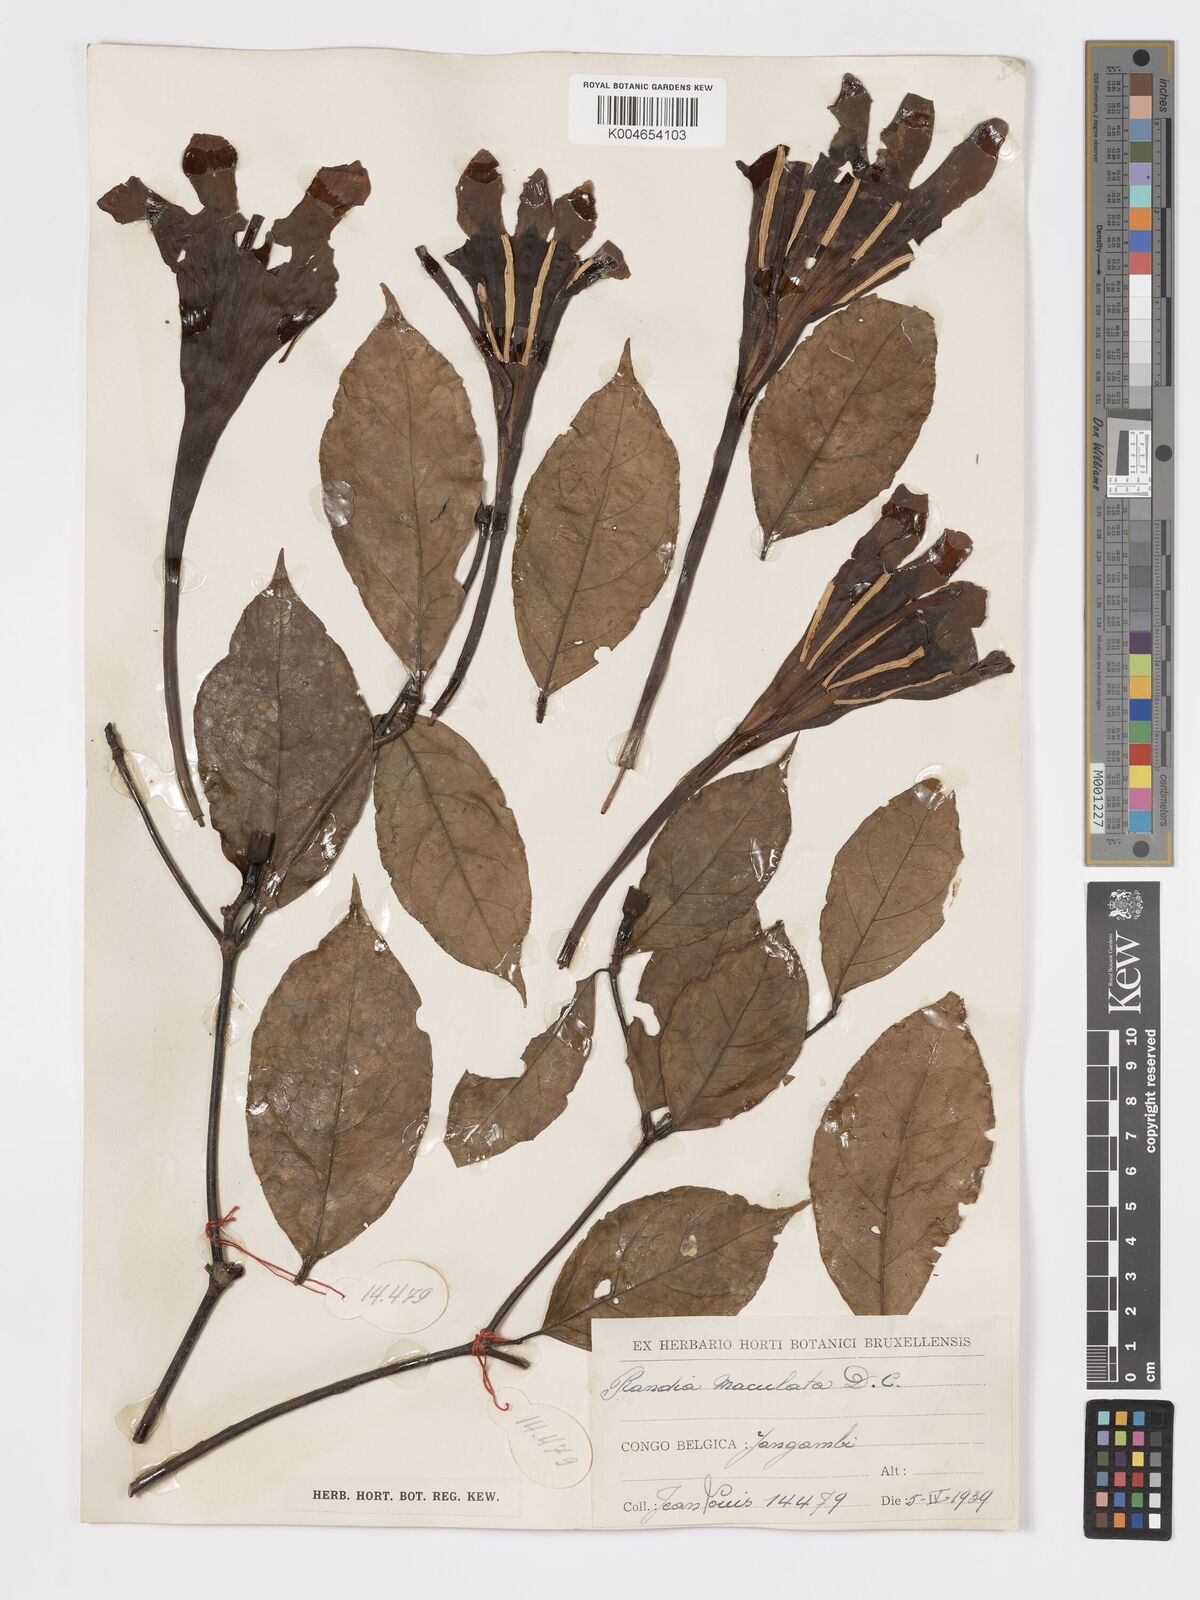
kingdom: Plantae
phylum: Tracheophyta
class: Magnoliopsida
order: Gentianales
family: Rubiaceae
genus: Rothmannia
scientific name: Rothmannia longiflora
